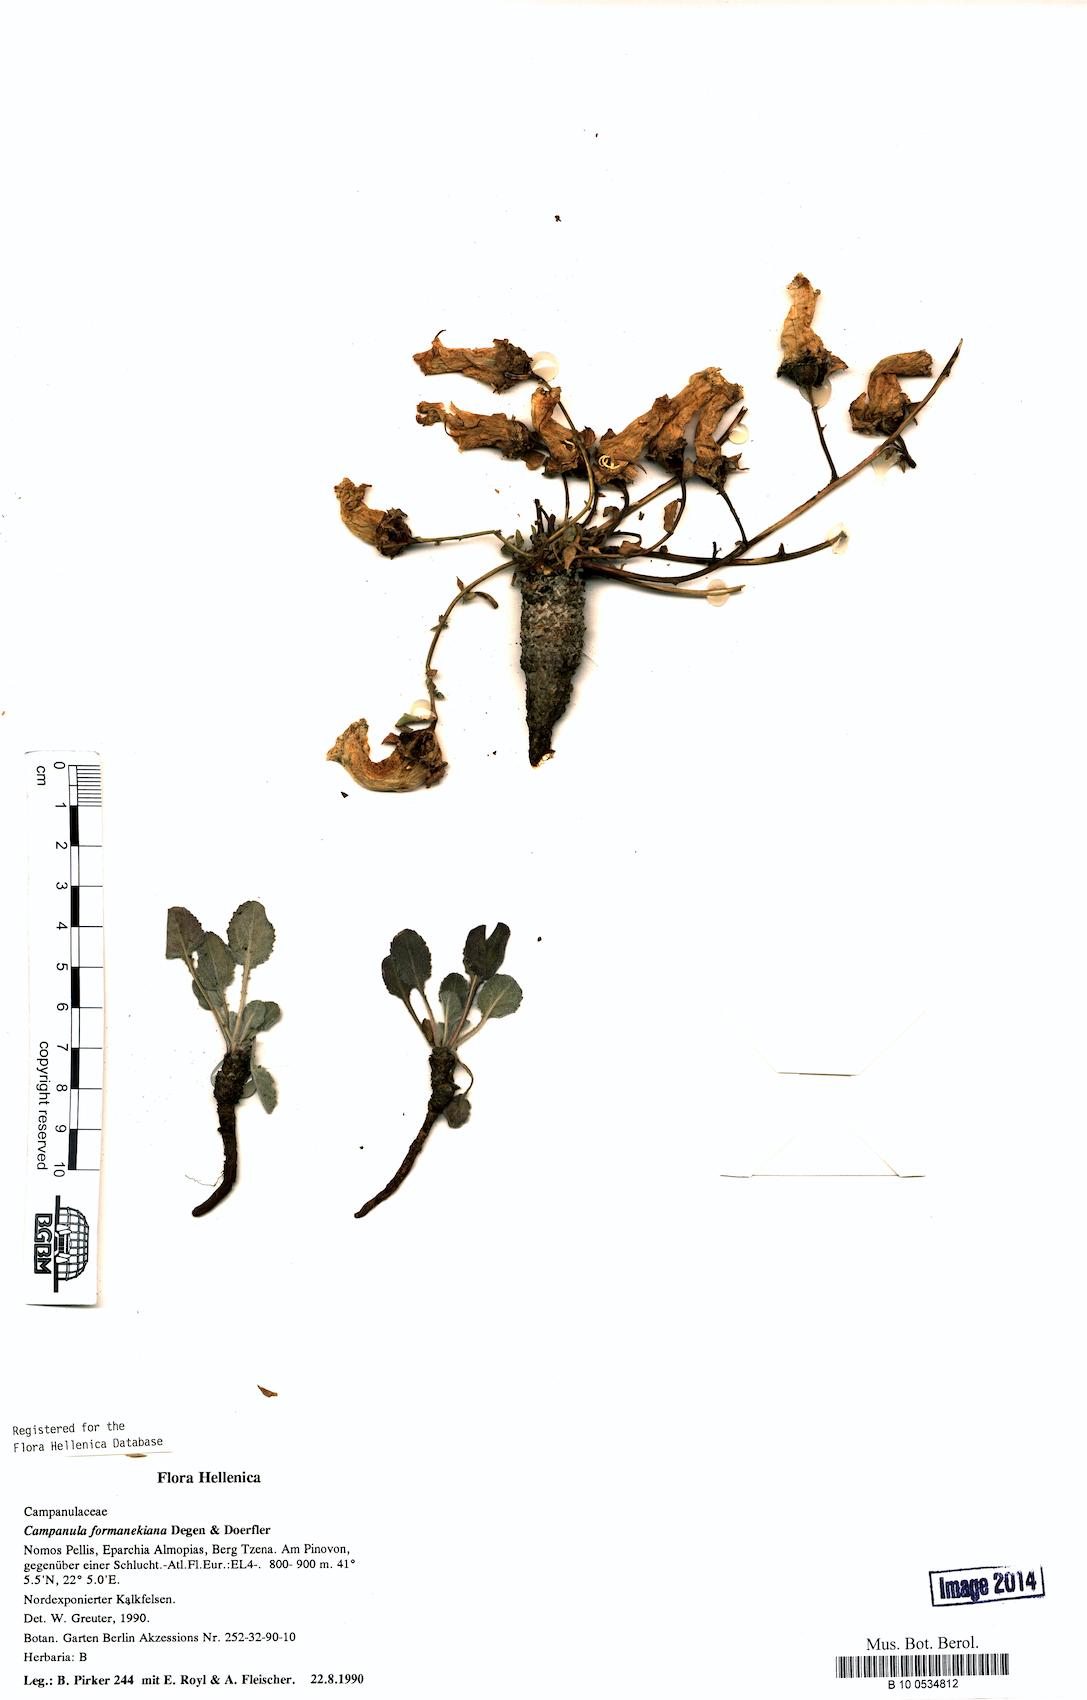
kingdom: Plantae
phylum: Tracheophyta
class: Magnoliopsida
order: Asterales
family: Campanulaceae
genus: Campanula
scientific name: Campanula formanekiana
